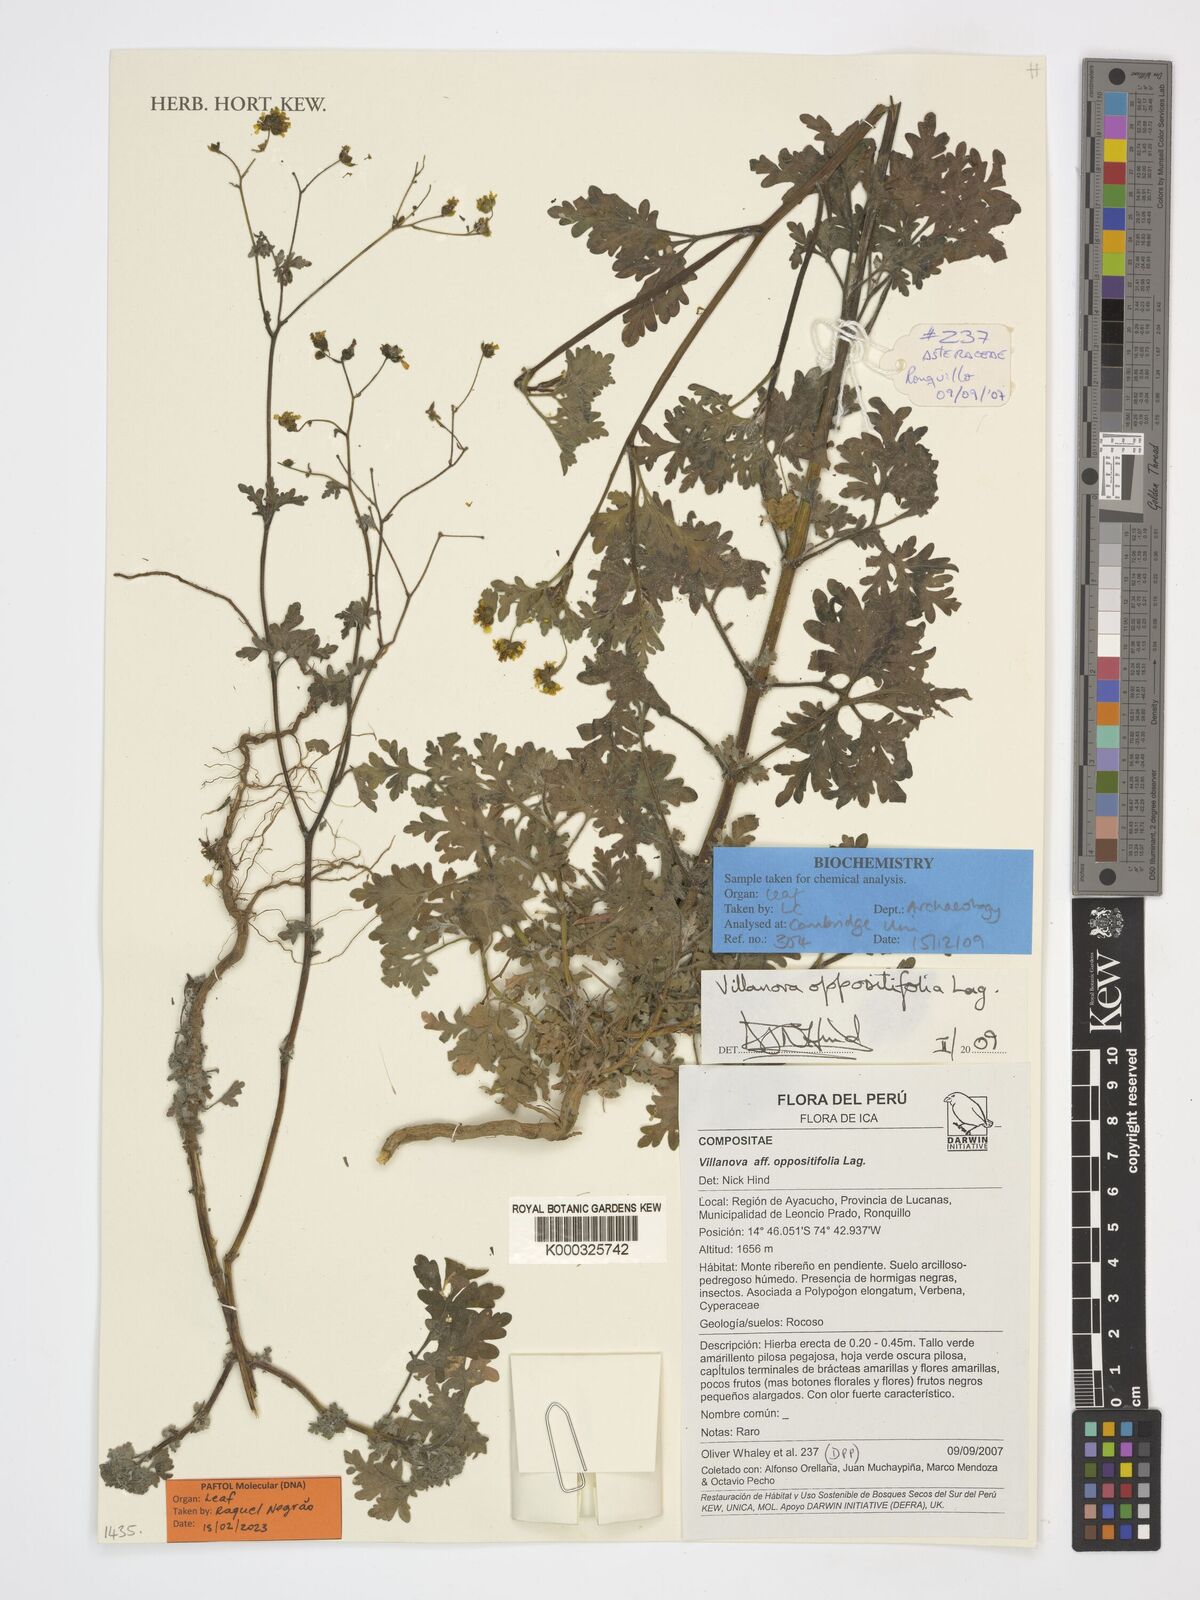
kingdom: Plantae
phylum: Tracheophyta
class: Magnoliopsida
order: Asterales
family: Asteraceae
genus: Villanova
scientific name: Villanova oppositifolia
